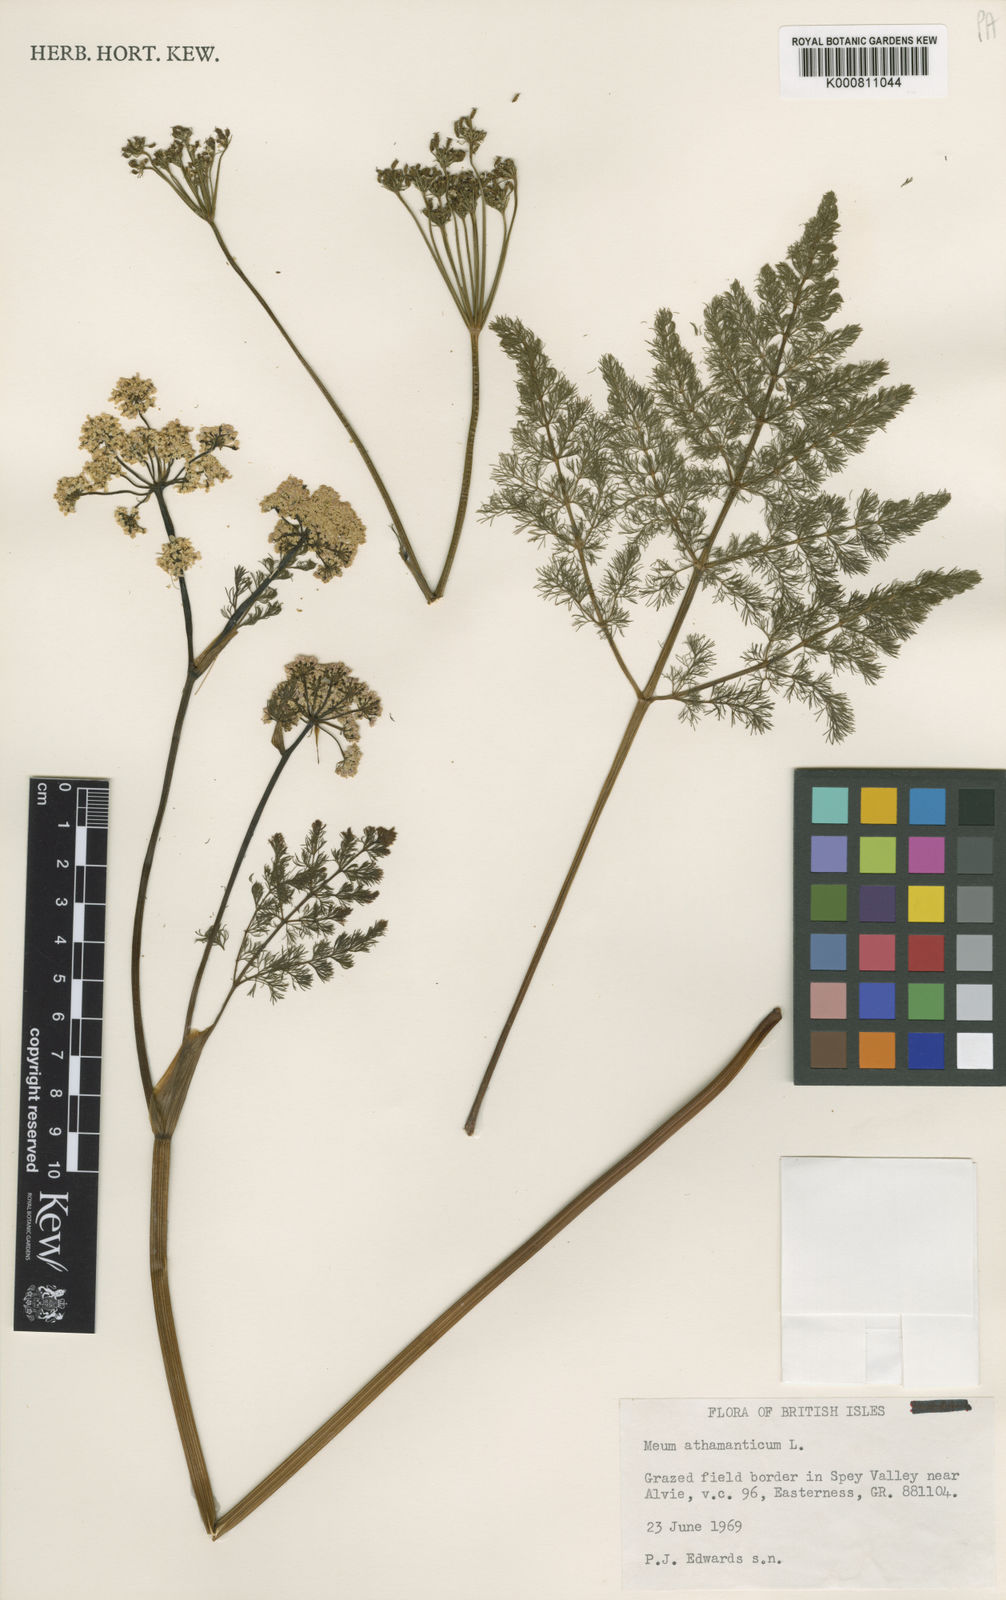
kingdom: Plantae
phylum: Tracheophyta
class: Magnoliopsida
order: Apiales
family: Apiaceae
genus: Meum
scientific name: Meum athamanticum
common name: Spignel
